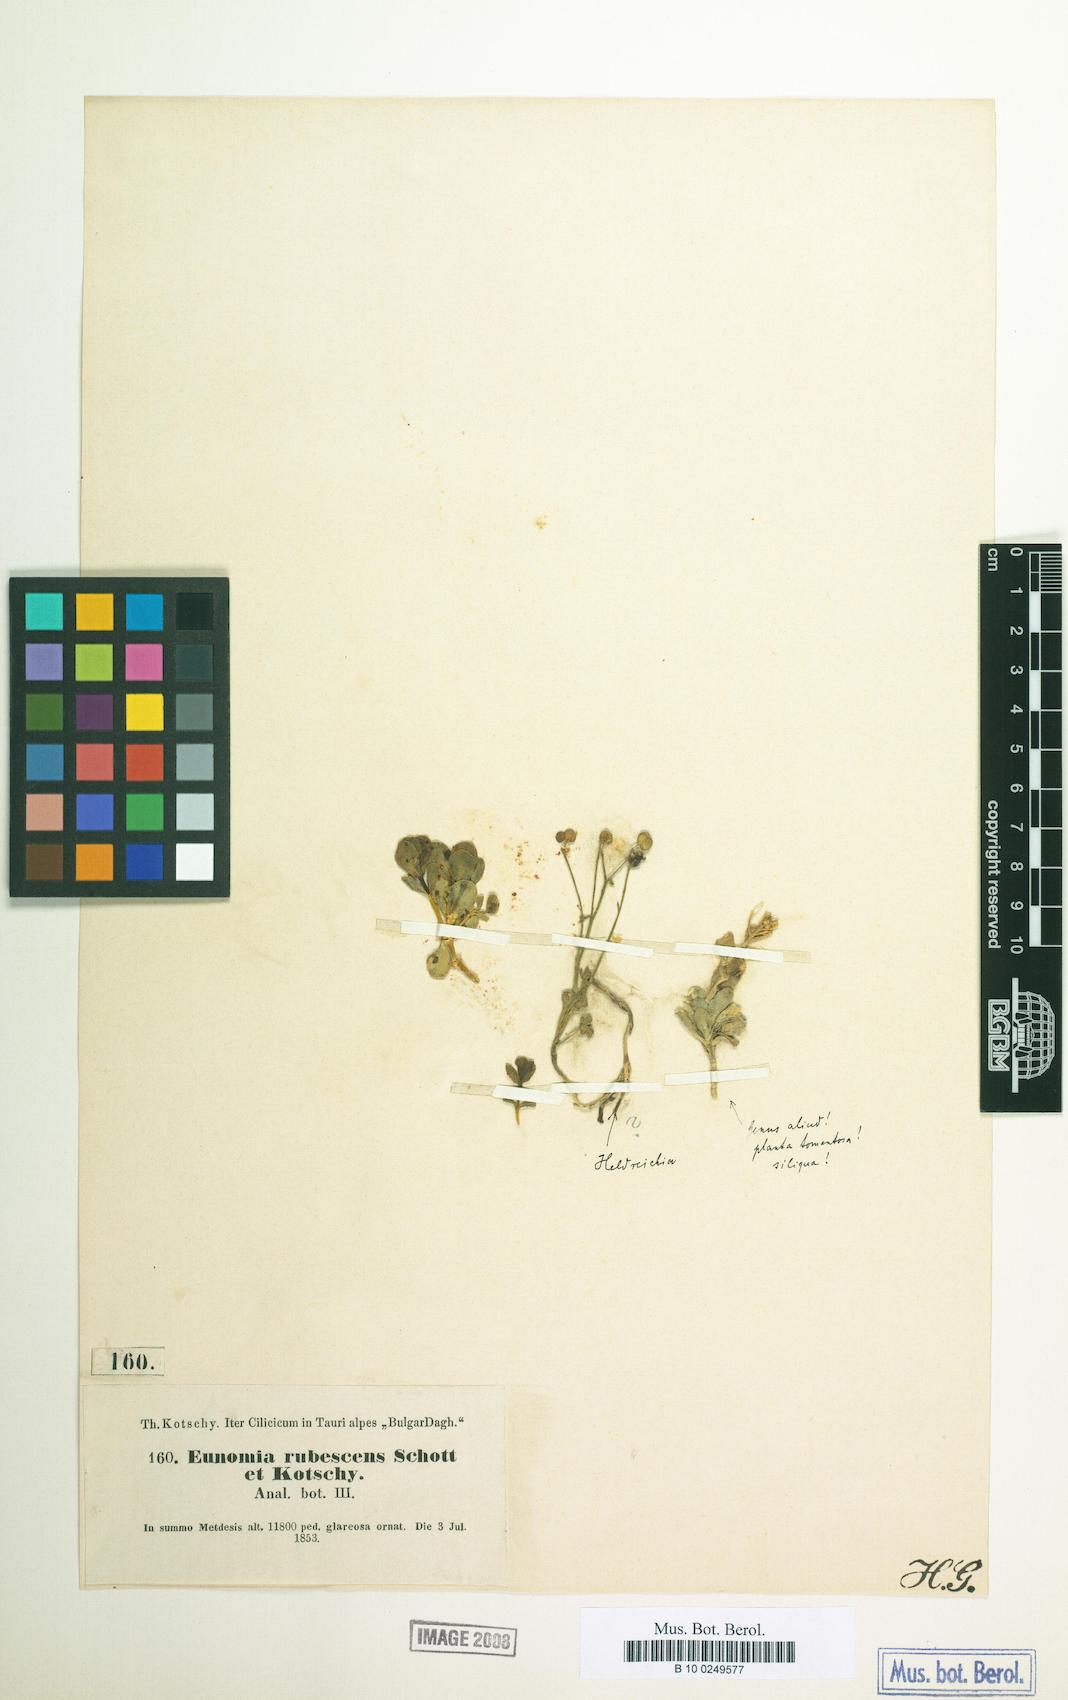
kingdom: Plantae
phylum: Tracheophyta
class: Magnoliopsida
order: Brassicales
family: Brassicaceae
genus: Noccaea
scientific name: Noccaea rubescens
